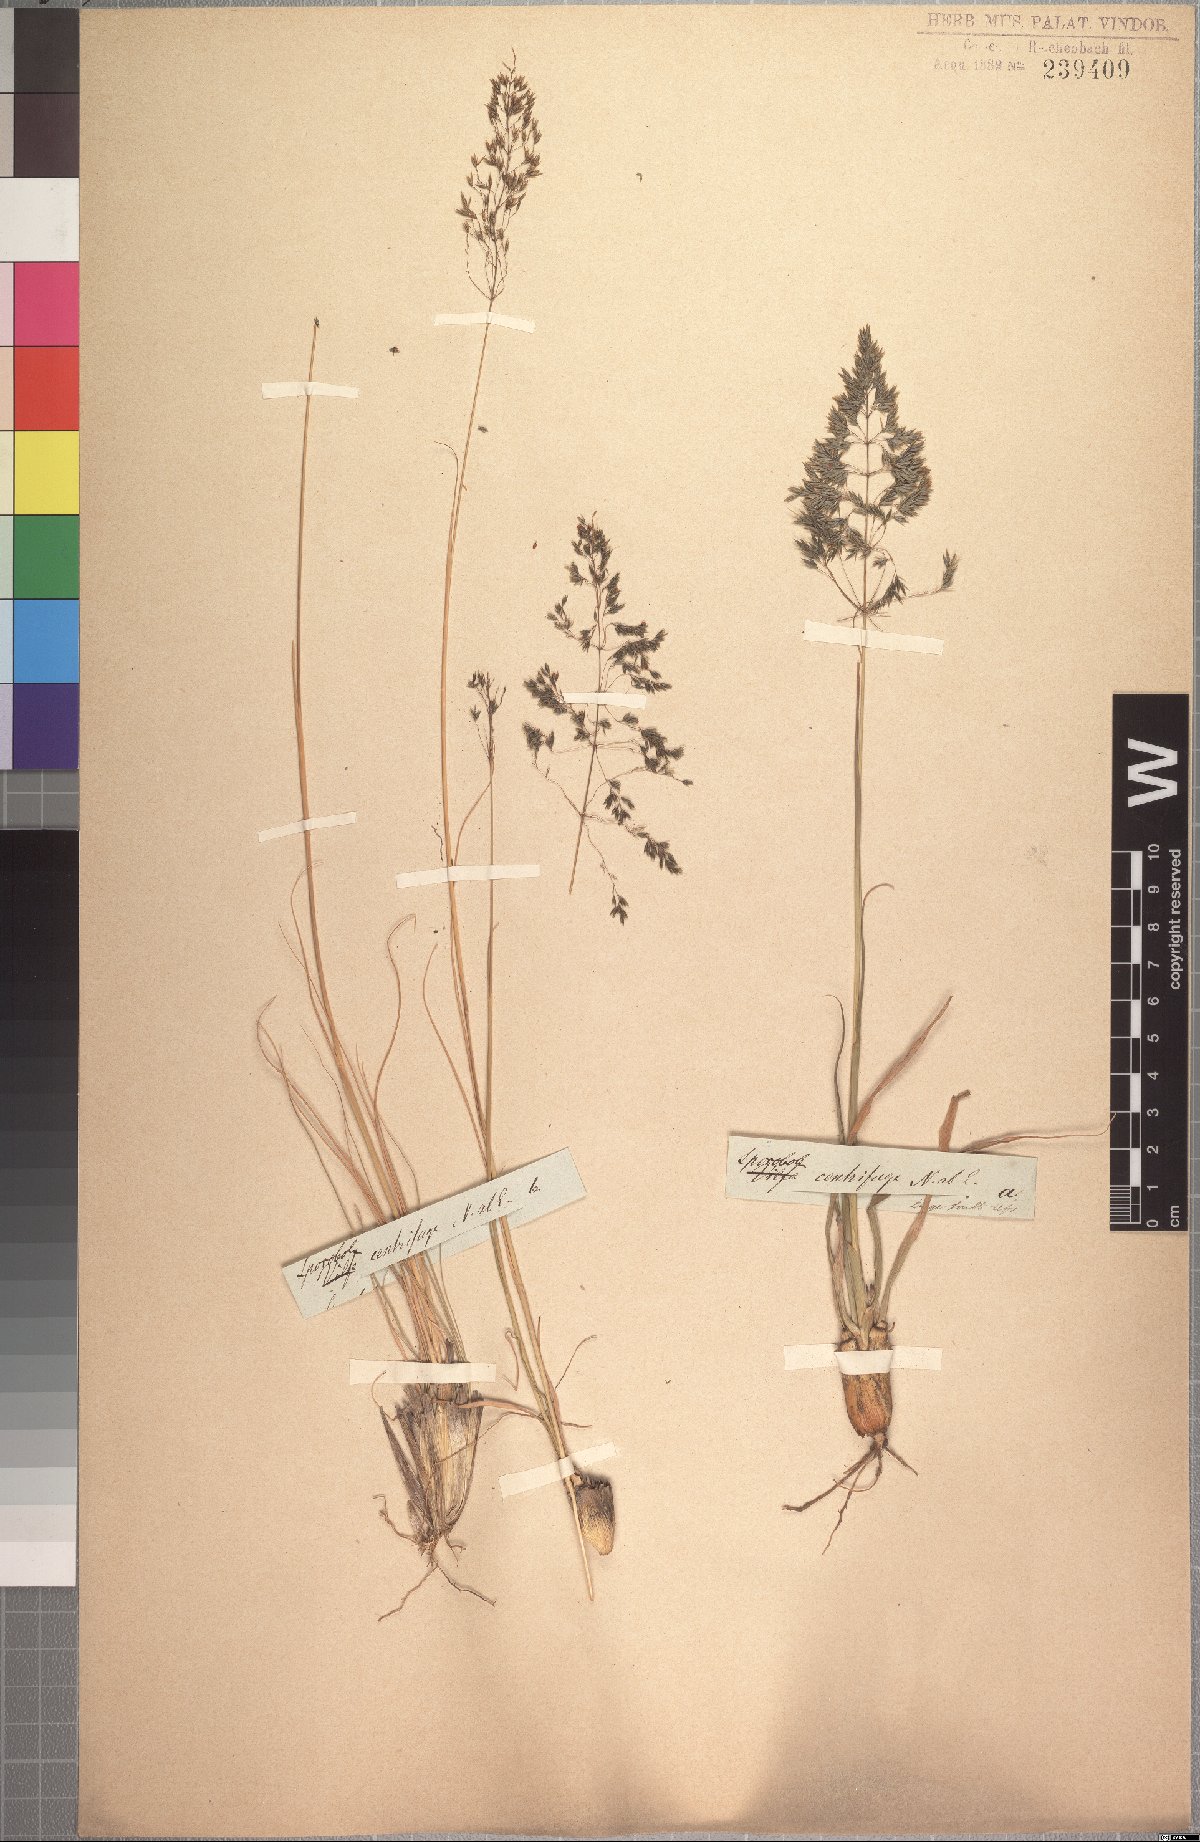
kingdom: Plantae
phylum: Tracheophyta
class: Liliopsida
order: Poales
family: Poaceae
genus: Sporobolus
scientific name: Sporobolus centrifugus
